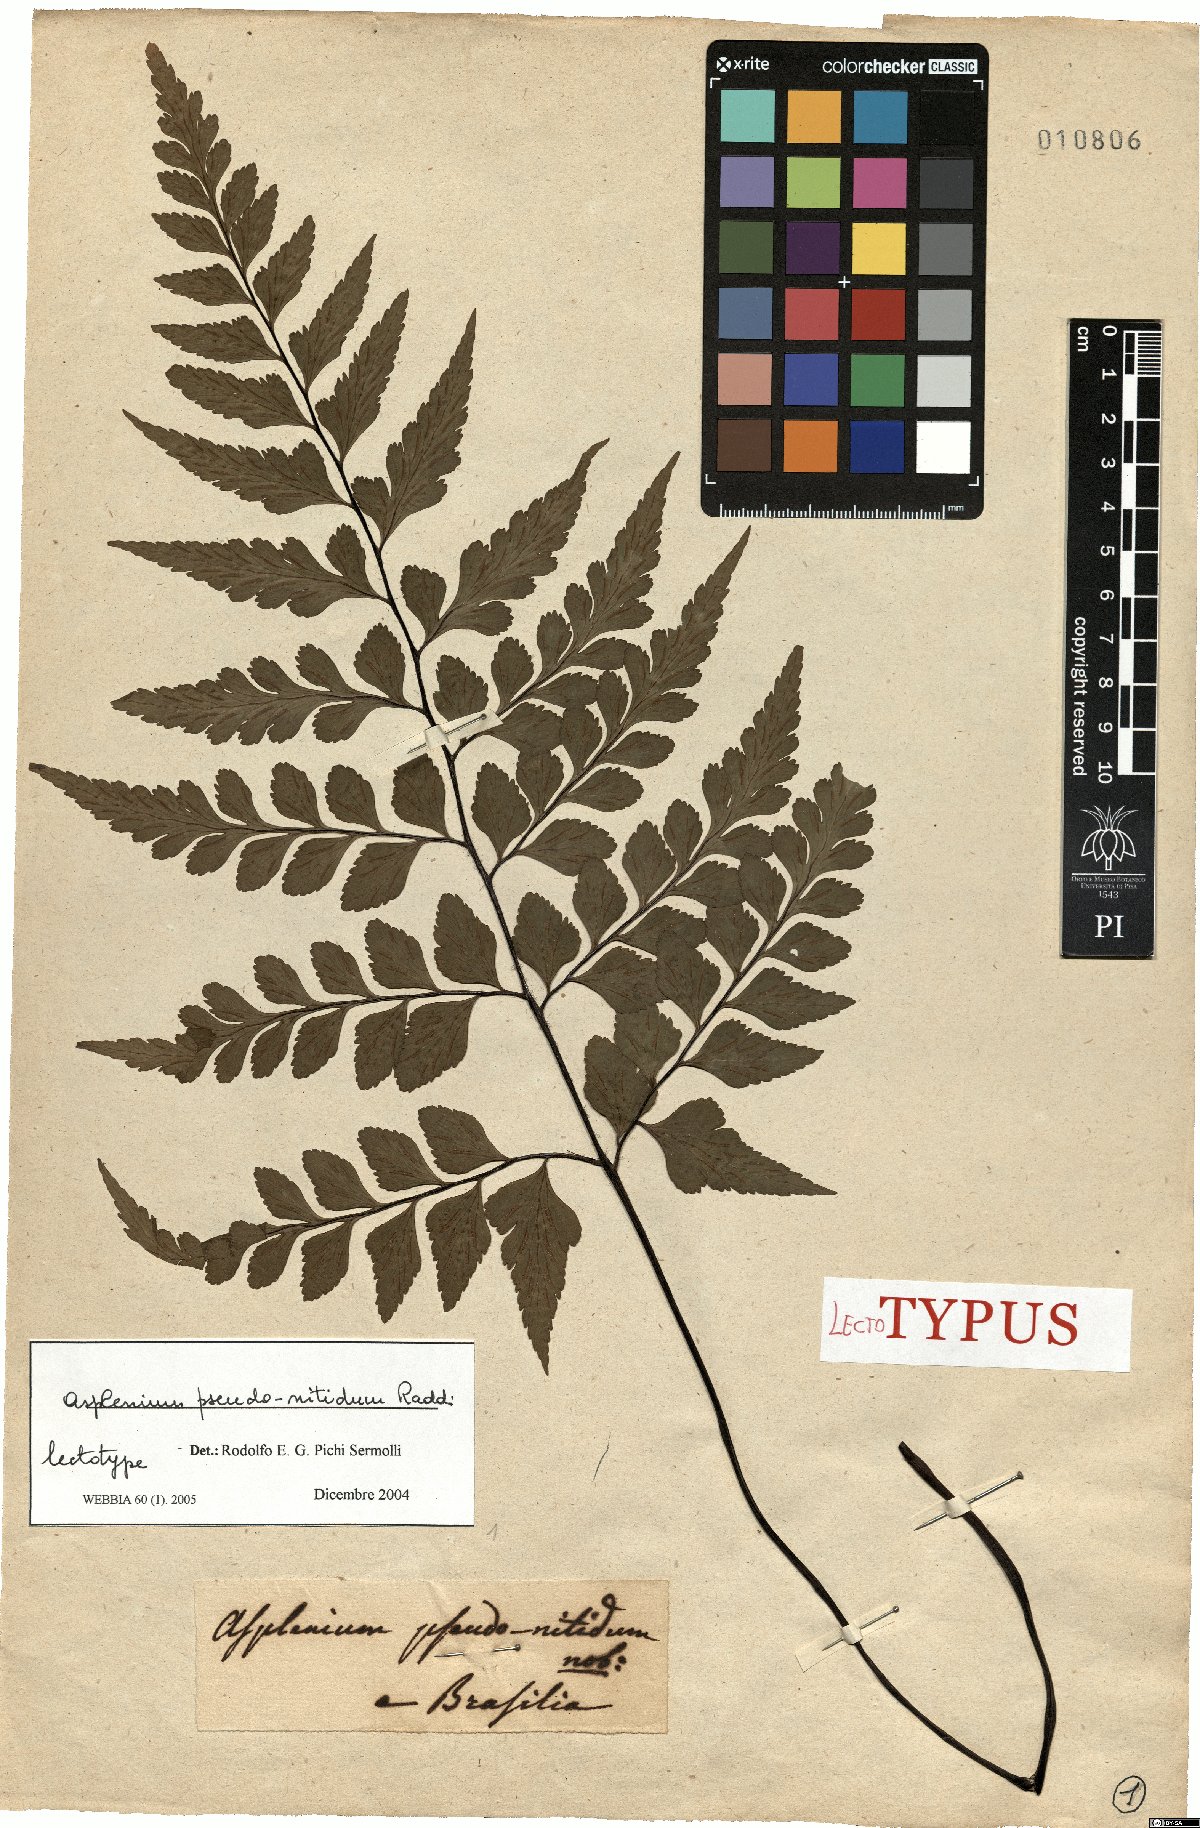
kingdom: Plantae
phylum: Tracheophyta
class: Polypodiopsida
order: Polypodiales
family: Aspleniaceae
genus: Asplenium
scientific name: Asplenium pseudonitidum
